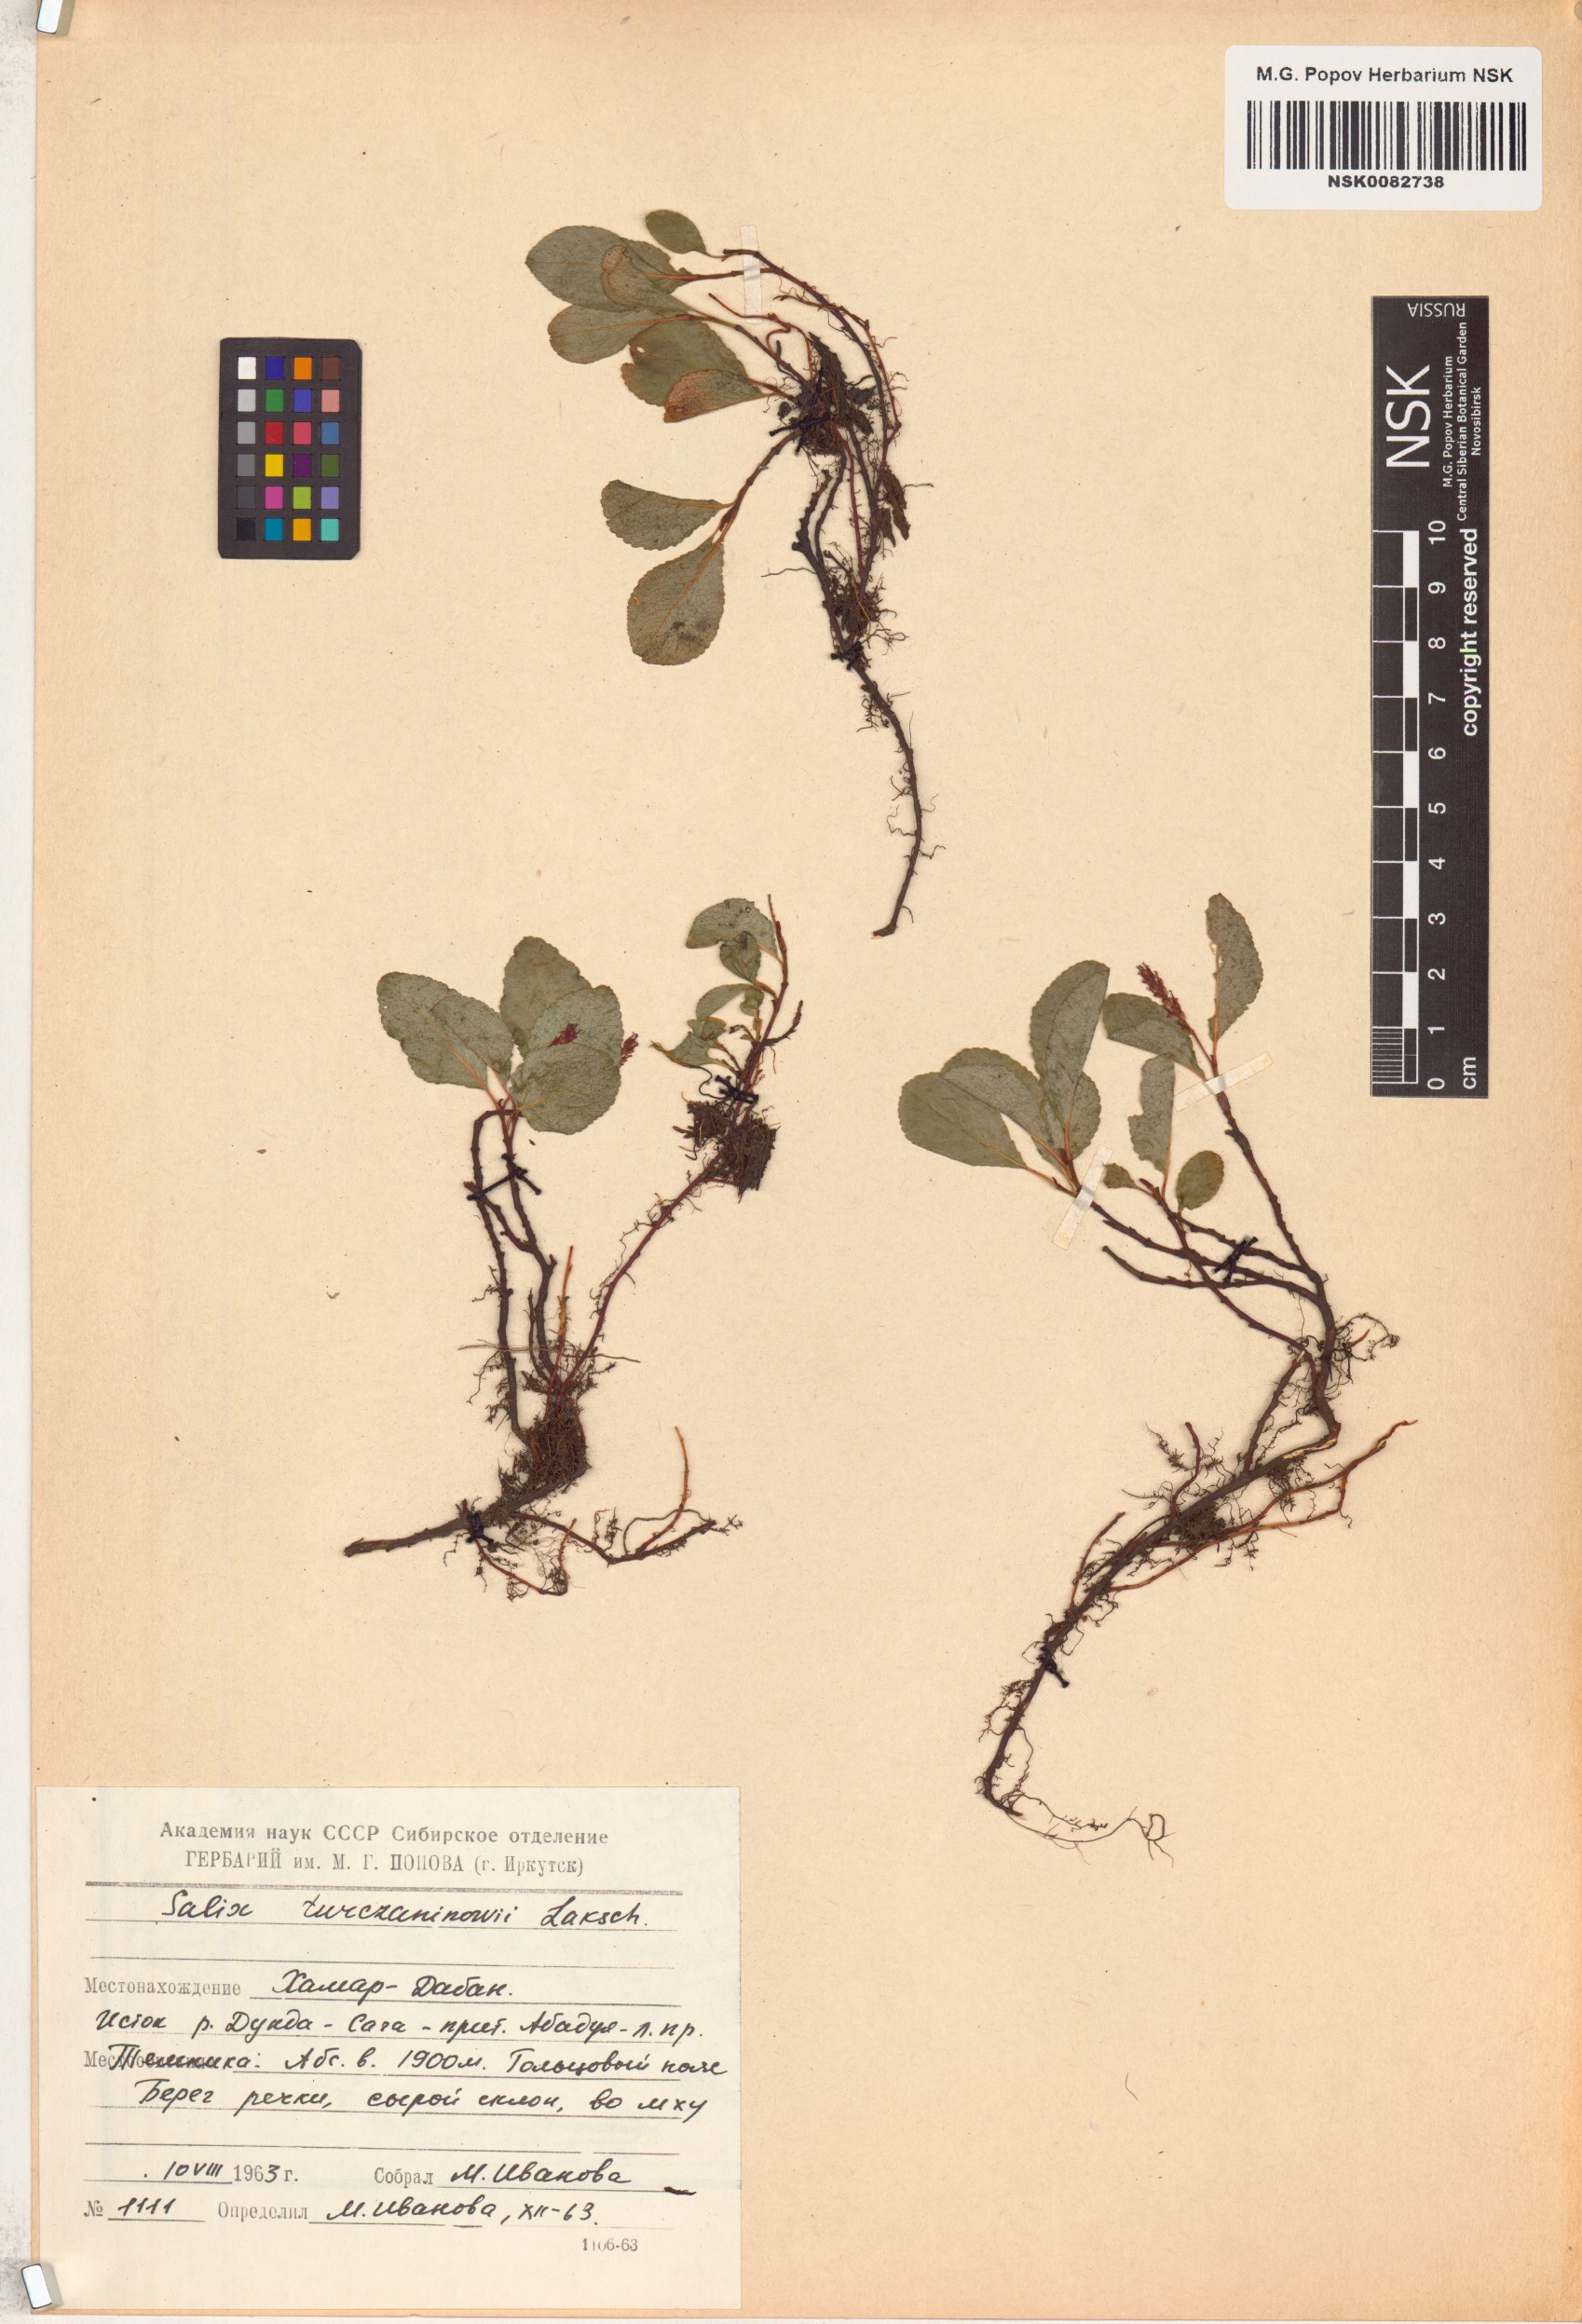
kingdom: Plantae
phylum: Tracheophyta
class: Magnoliopsida
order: Malpighiales
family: Salicaceae
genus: Salix
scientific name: Salix turczaninowii
